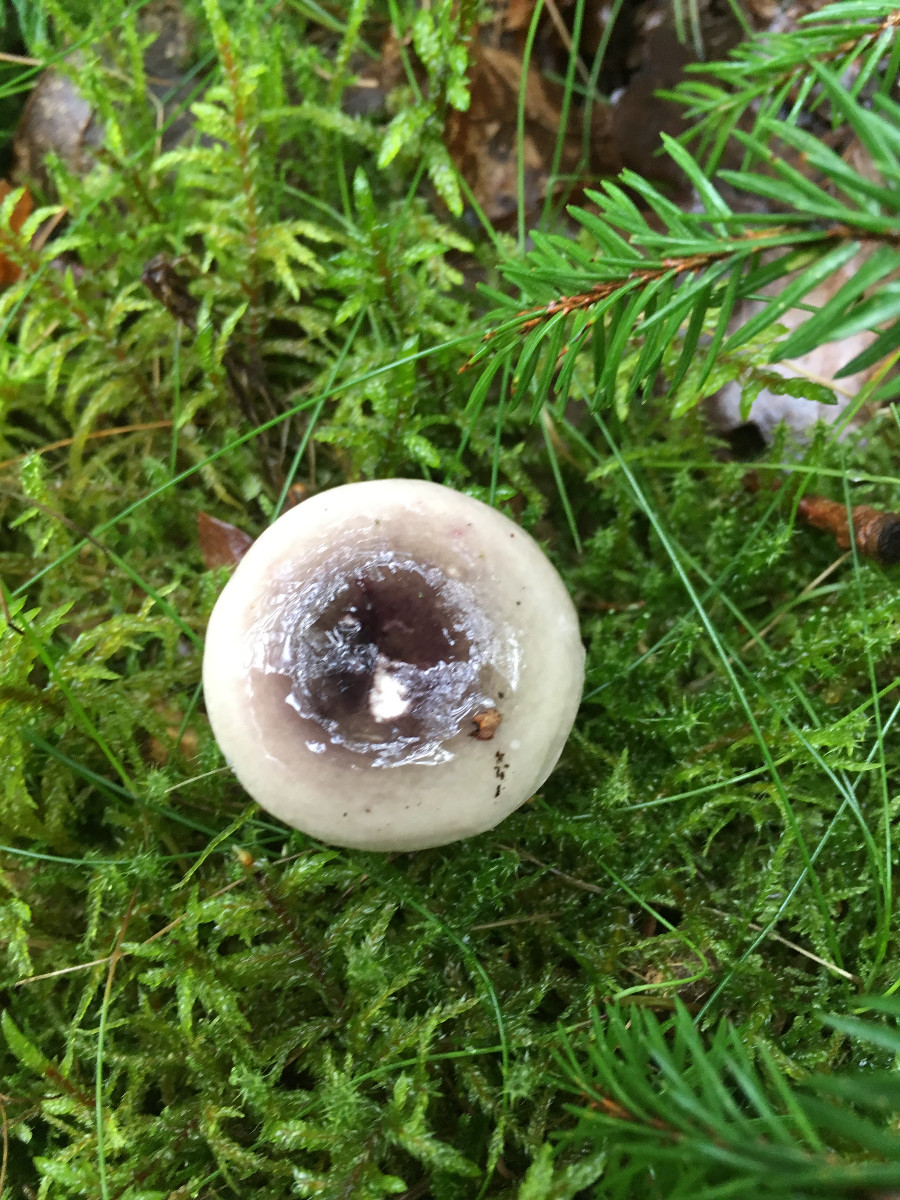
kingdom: Fungi
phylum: Basidiomycota
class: Agaricomycetes
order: Russulales
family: Russulaceae
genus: Russula
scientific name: Russula
